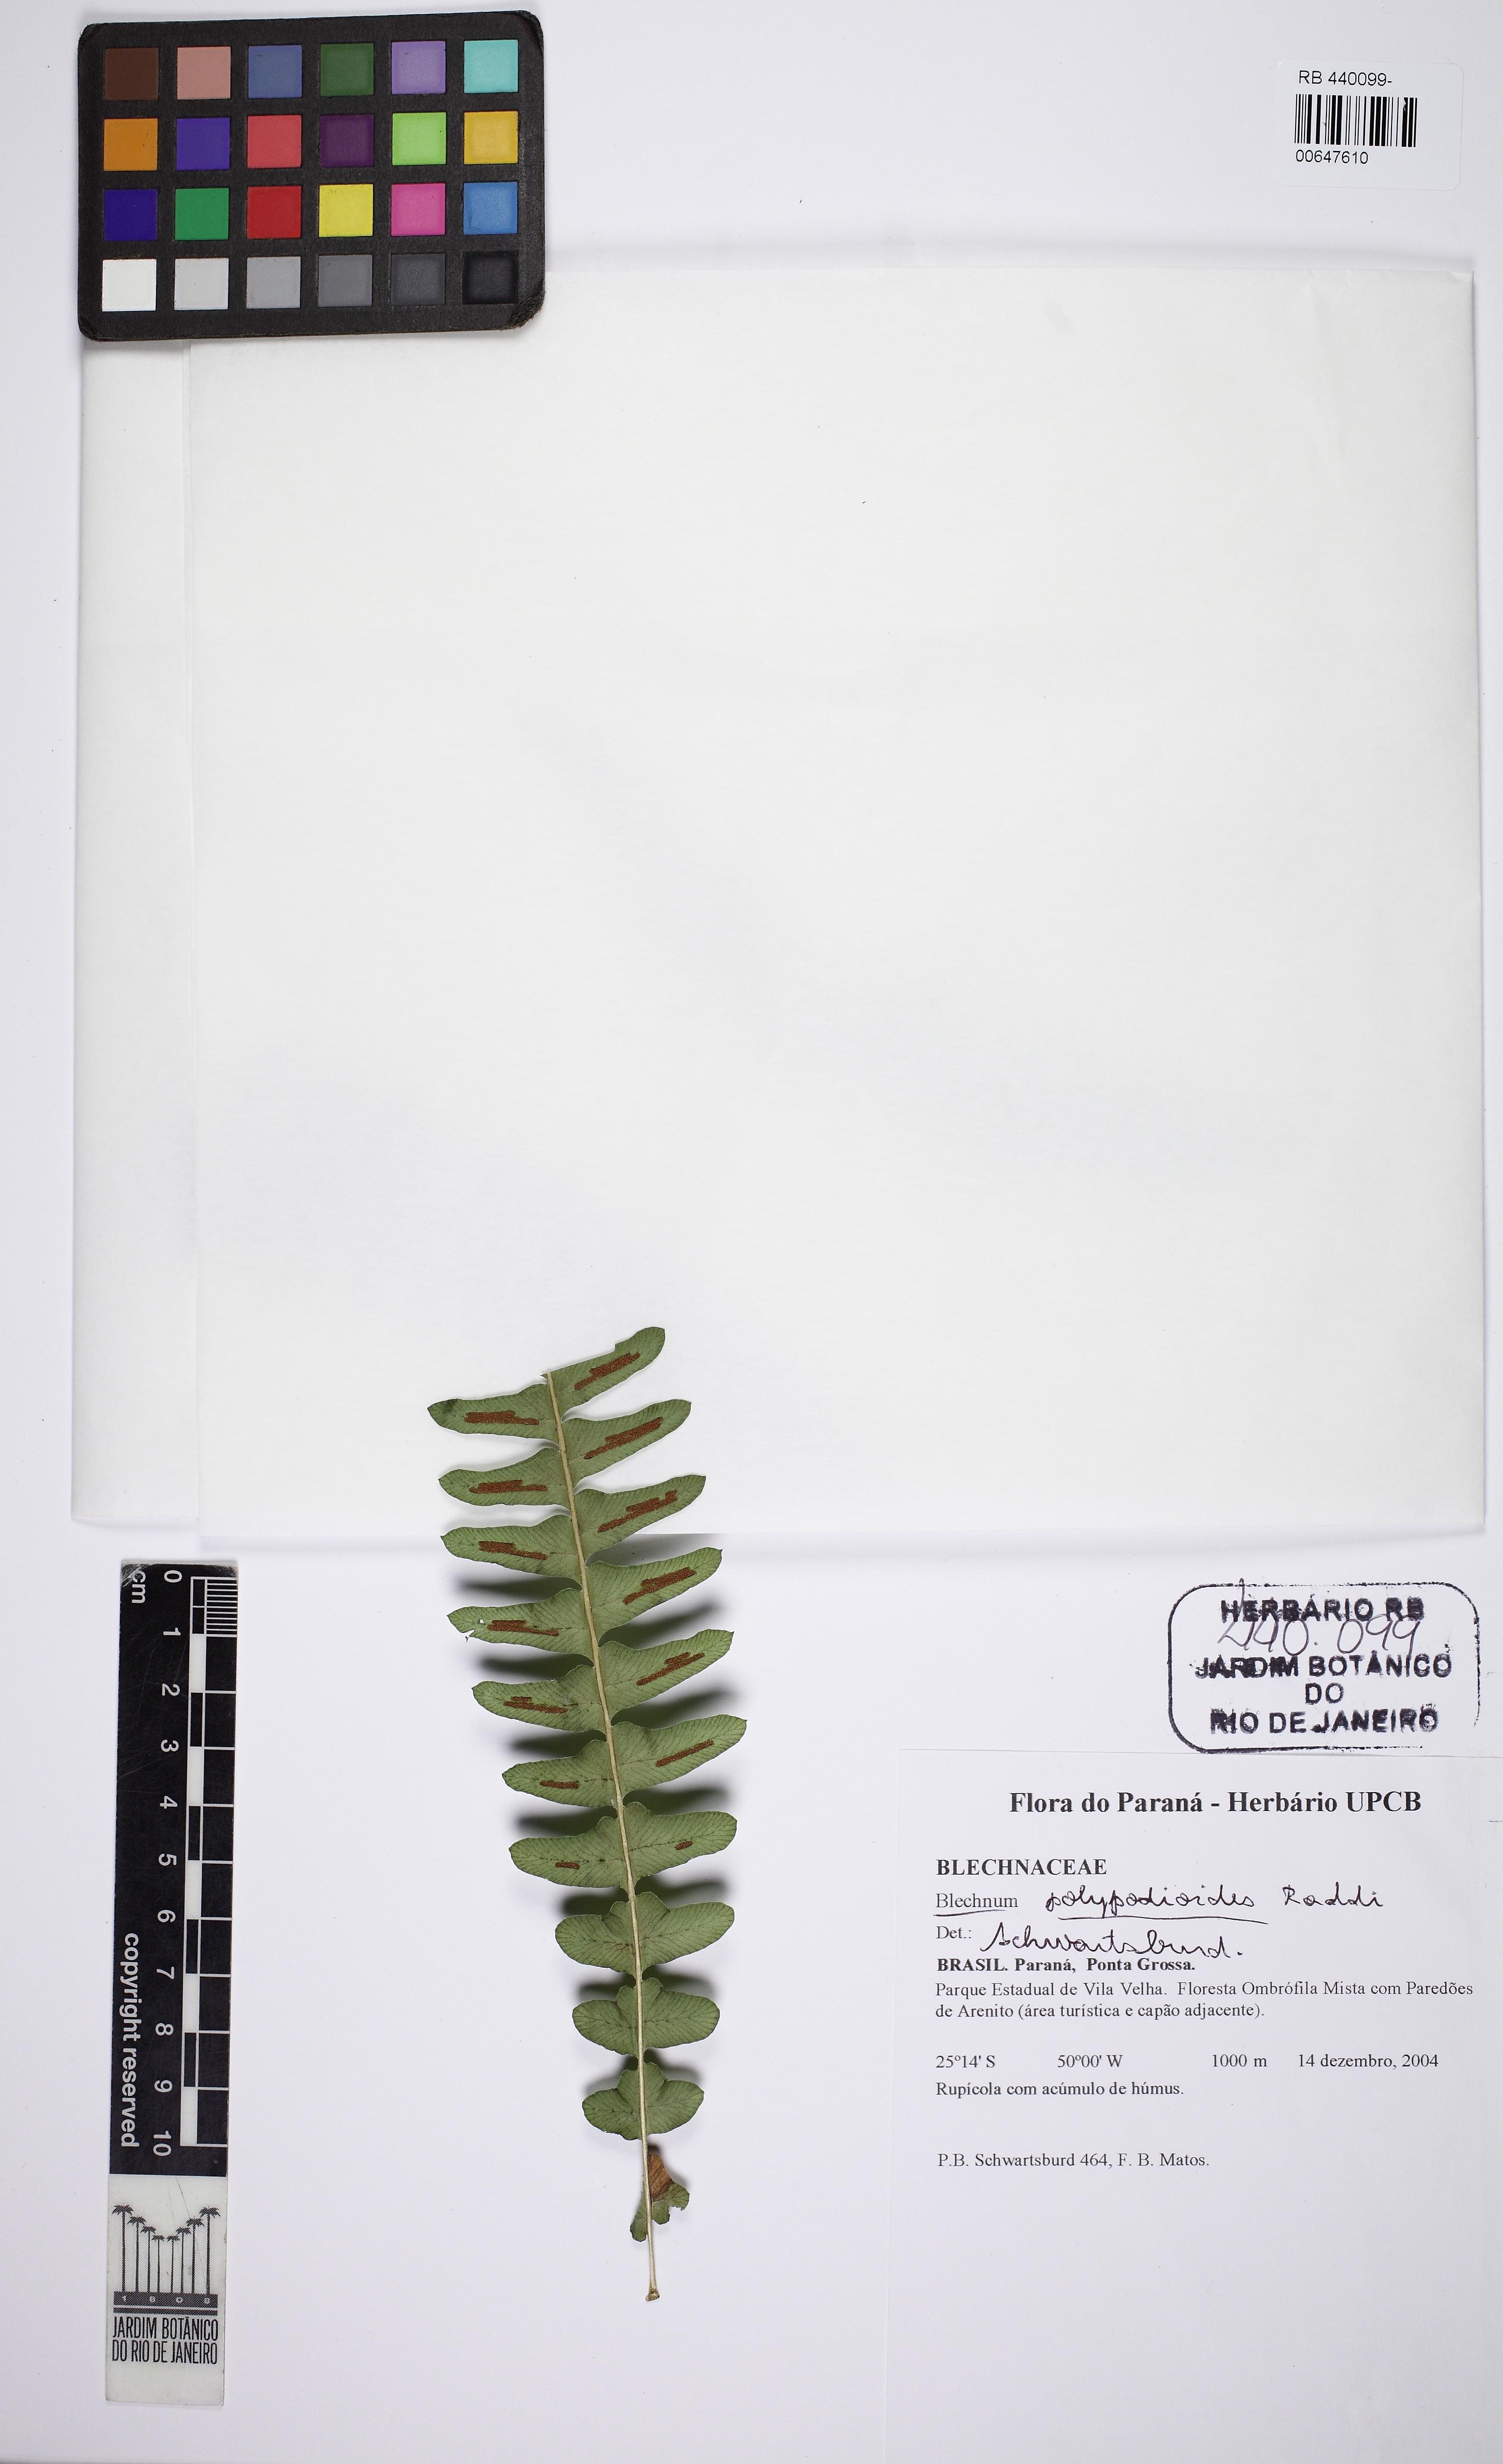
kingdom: Plantae
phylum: Tracheophyta
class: Polypodiopsida
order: Polypodiales
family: Blechnaceae
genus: Blechnum
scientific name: Blechnum polypodioides
